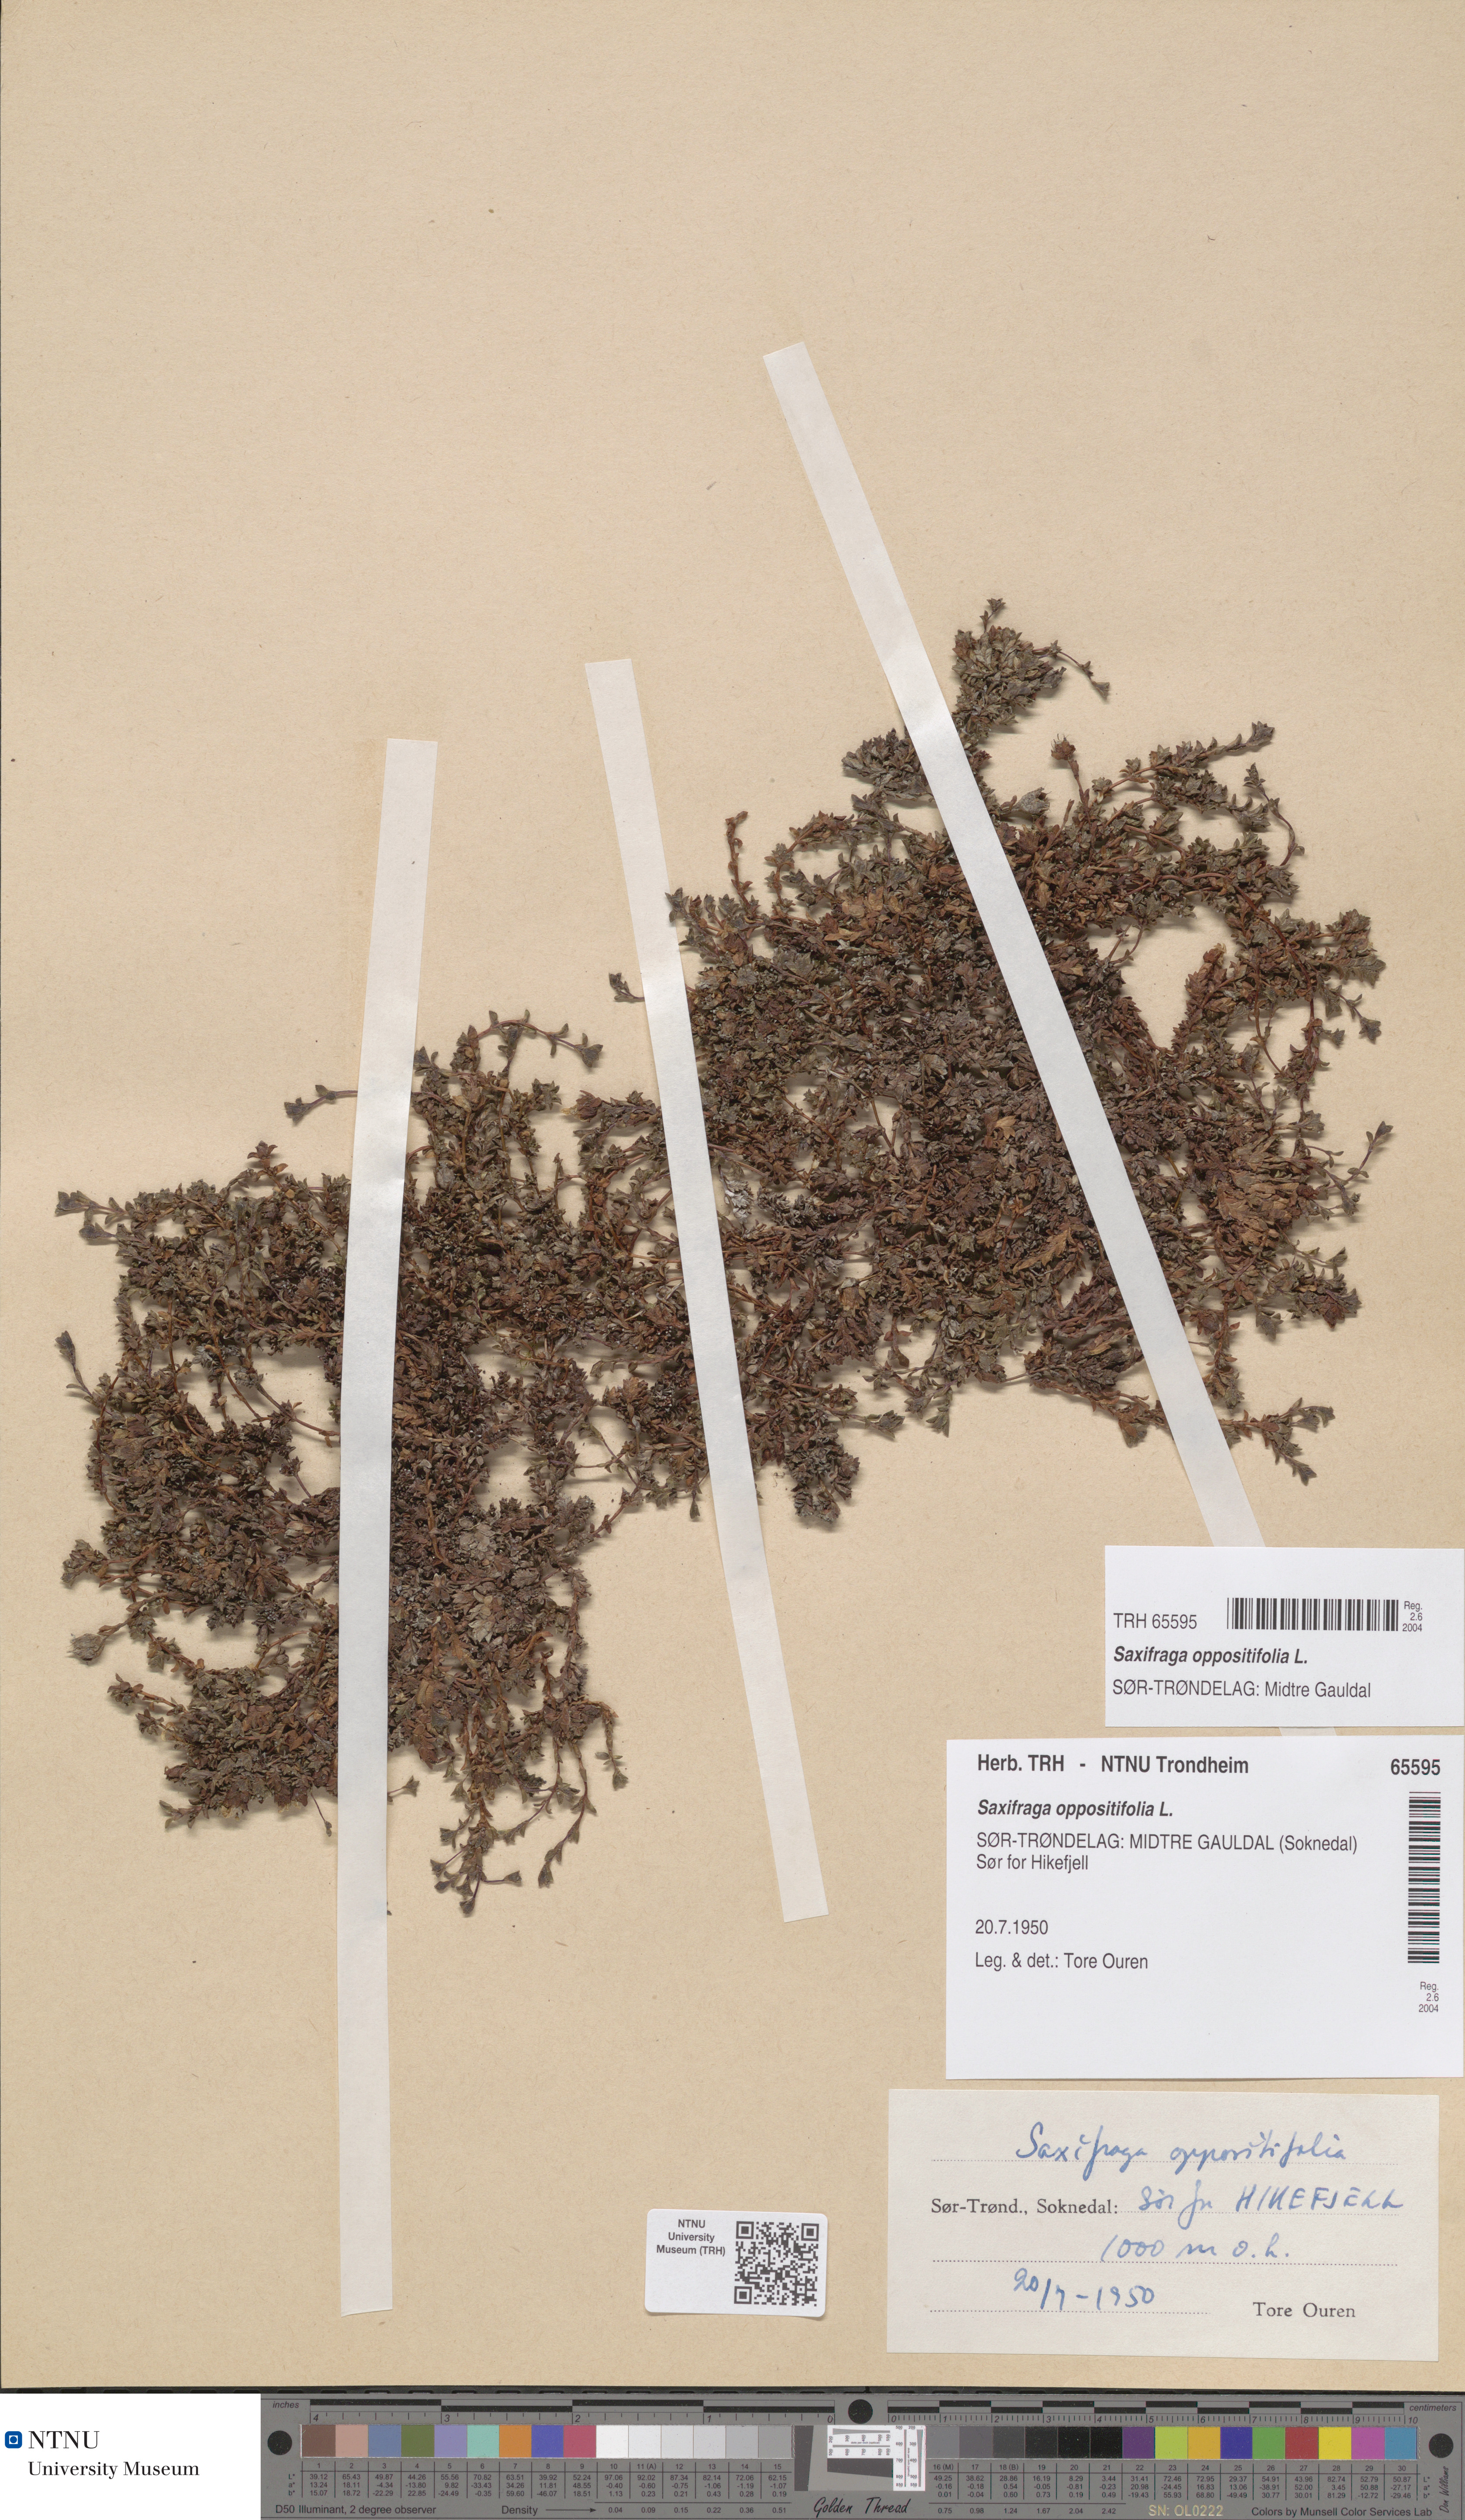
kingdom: Plantae
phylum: Tracheophyta
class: Magnoliopsida
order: Saxifragales
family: Saxifragaceae
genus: Saxifraga
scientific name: Saxifraga oppositifolia
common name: Purple saxifrage
